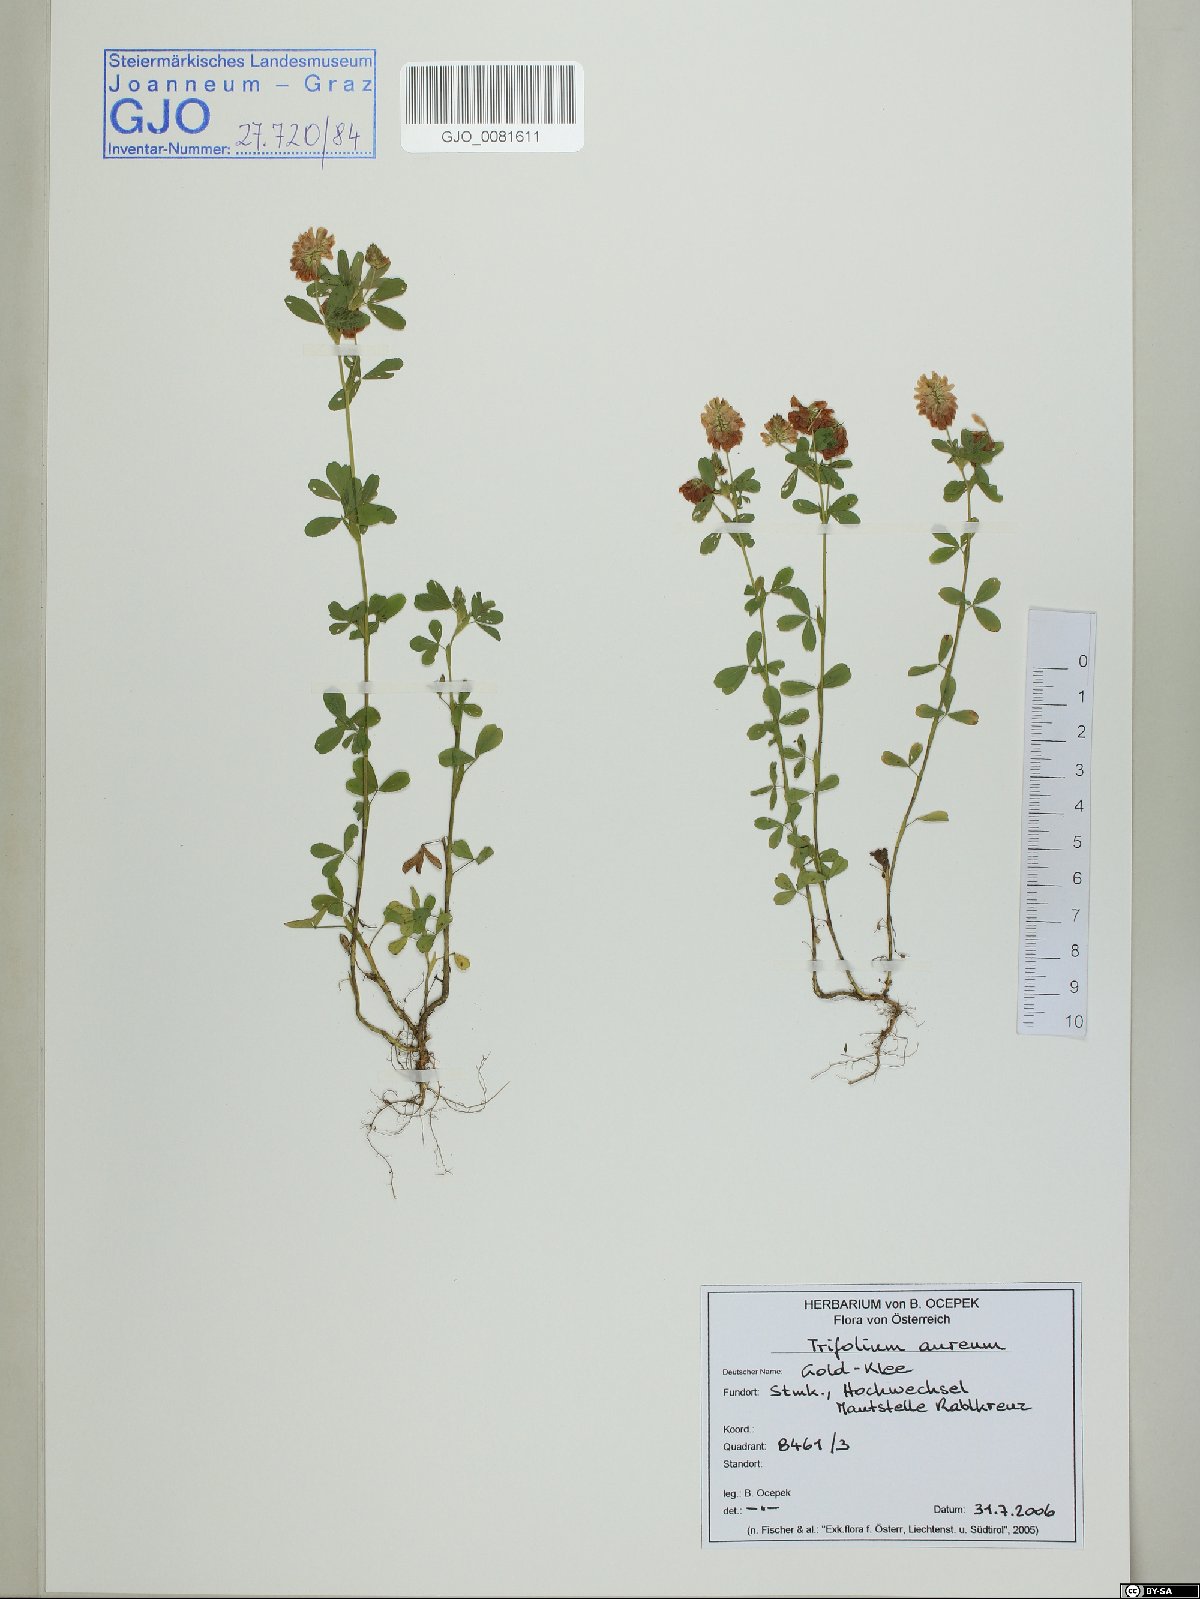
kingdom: Plantae
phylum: Tracheophyta
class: Magnoliopsida
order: Fabales
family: Fabaceae
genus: Trifolium
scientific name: Trifolium aureum
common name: Golden clover
